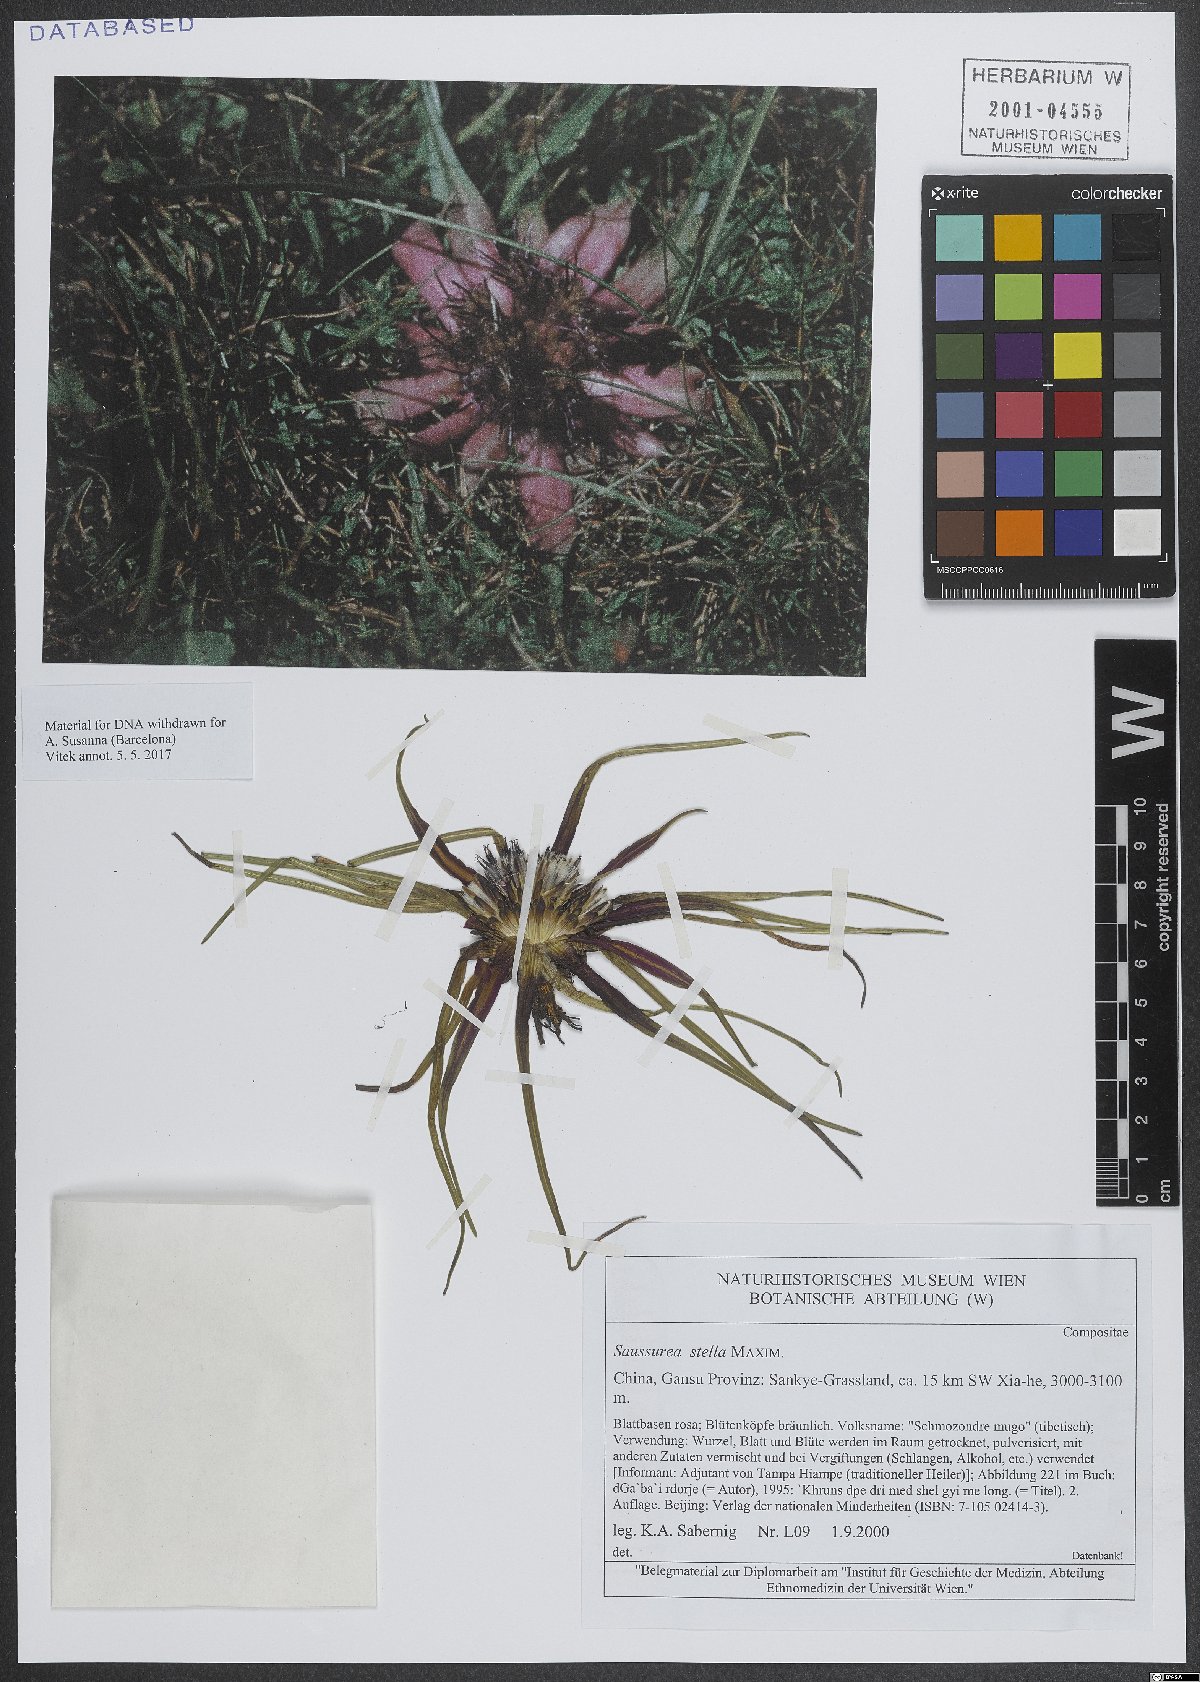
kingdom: Plantae
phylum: Tracheophyta
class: Magnoliopsida
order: Asterales
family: Asteraceae
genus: Saussurea
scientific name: Saussurea stella
